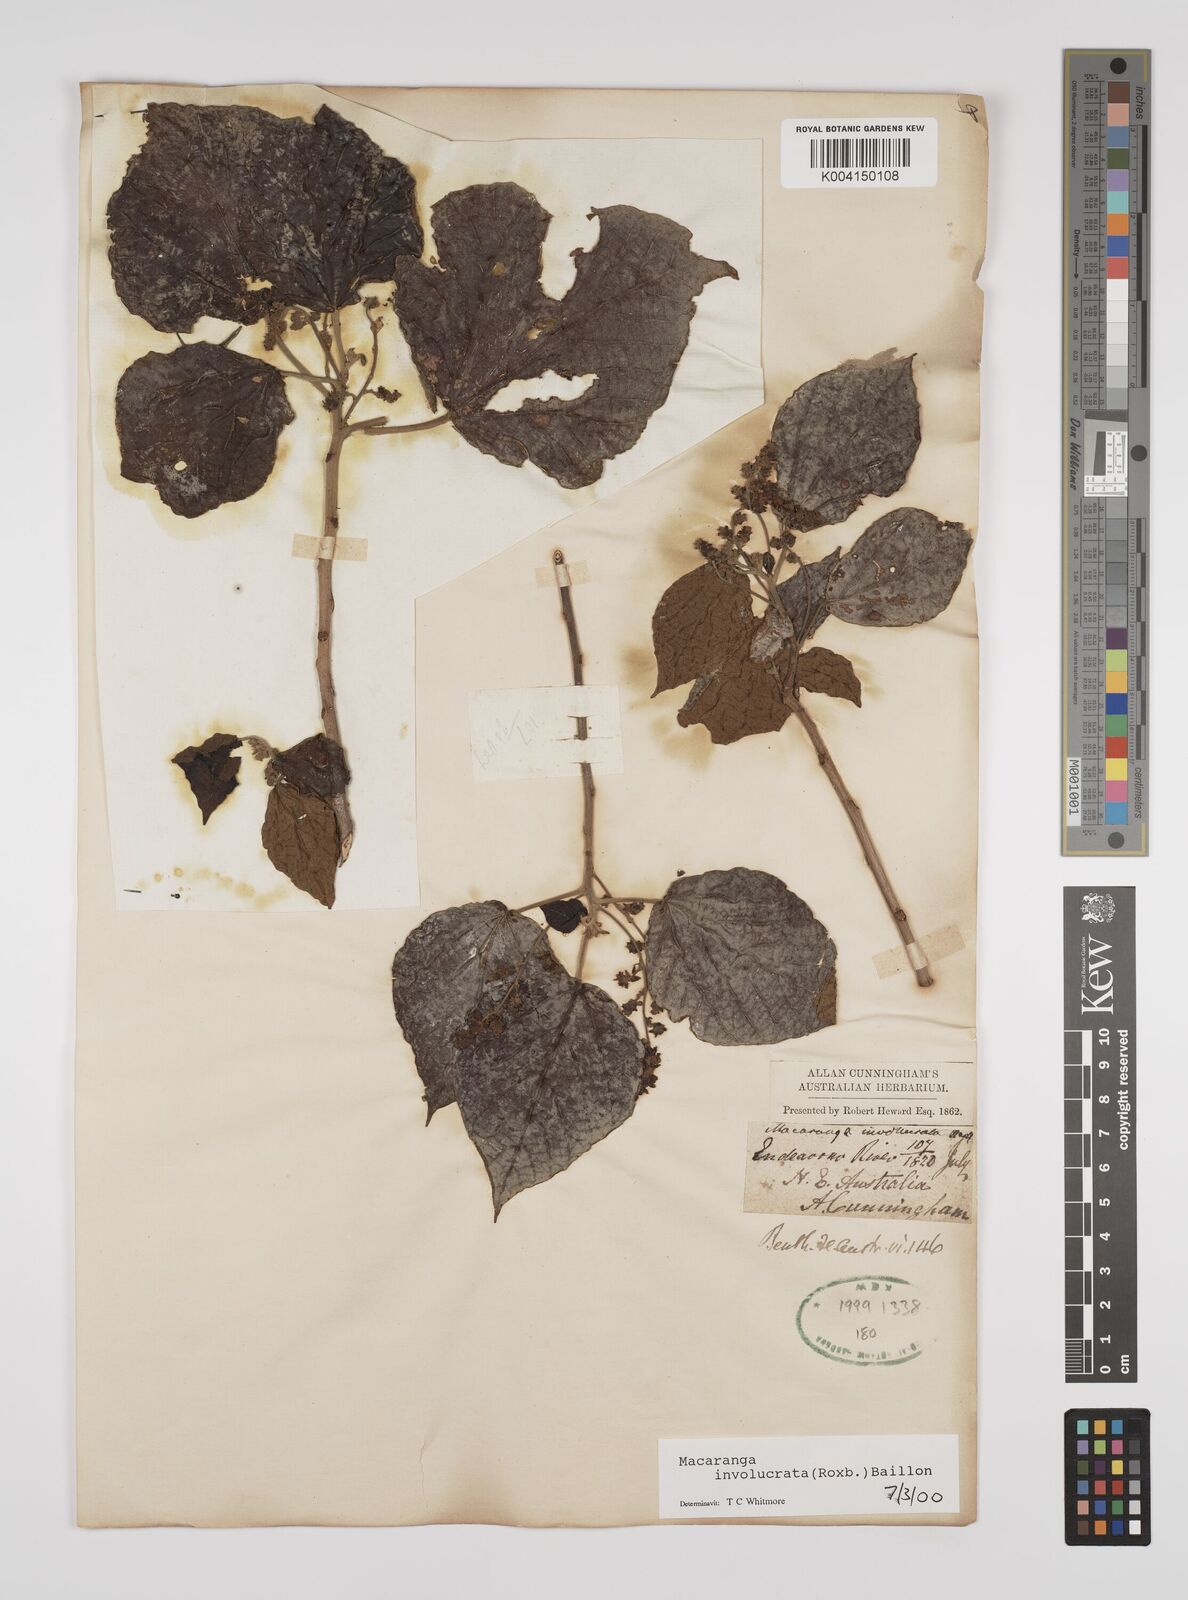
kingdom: Plantae
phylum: Tracheophyta
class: Magnoliopsida
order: Malpighiales
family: Euphorbiaceae
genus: Macaranga
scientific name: Macaranga involucrata
